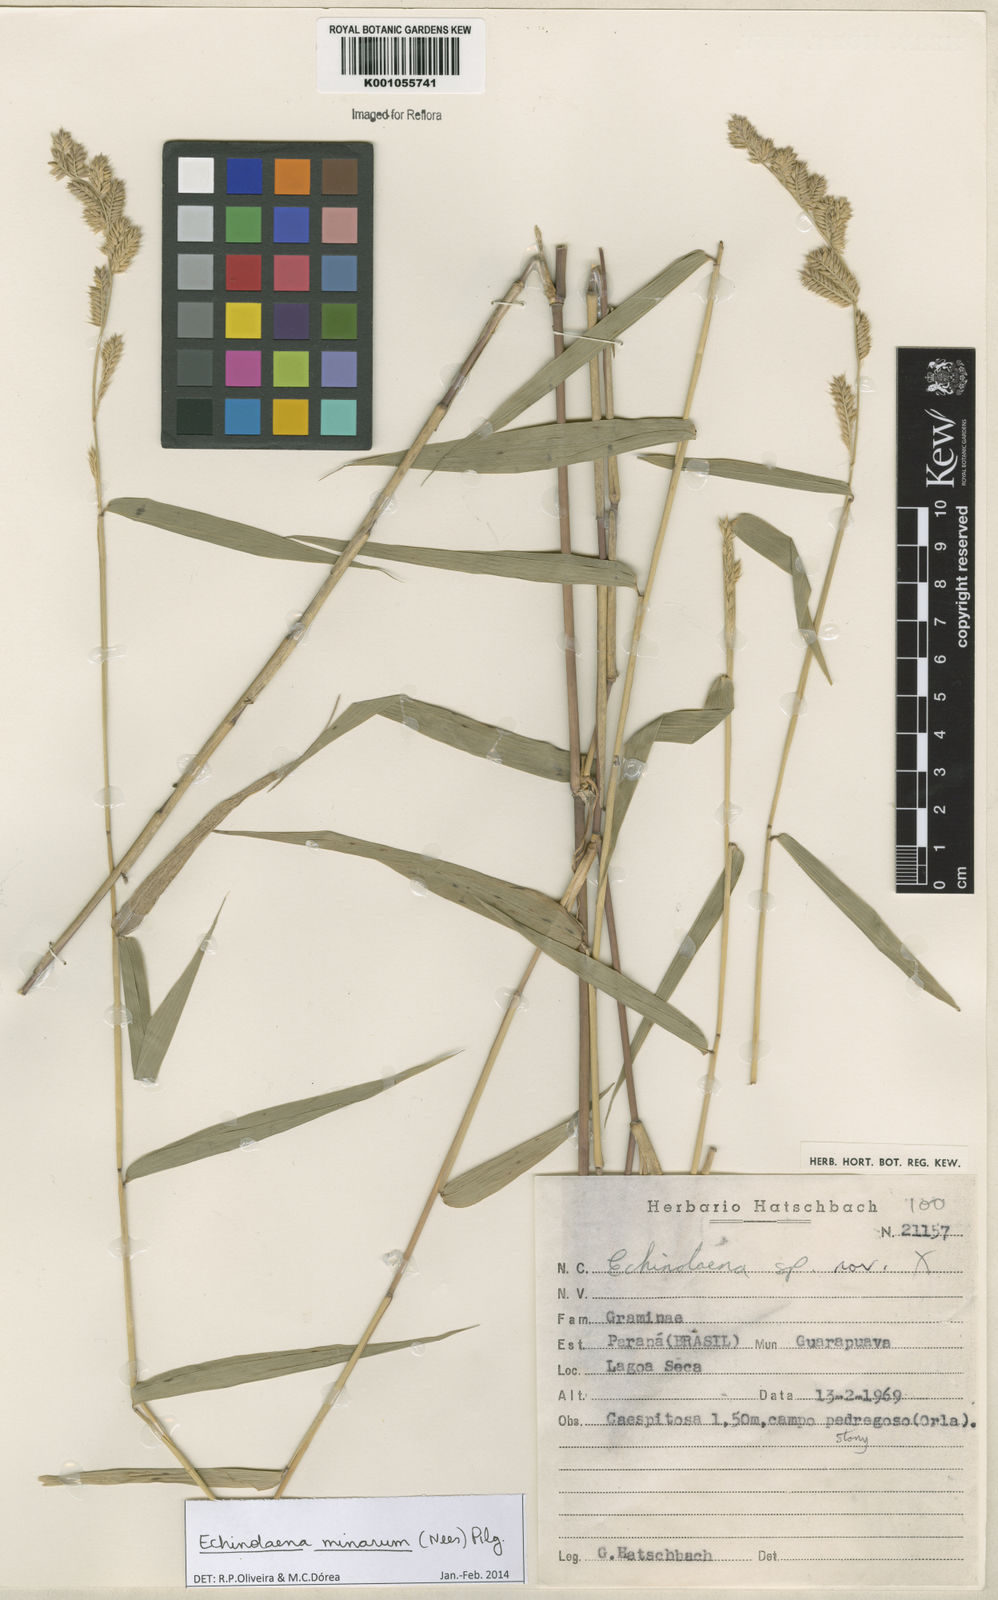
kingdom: Plantae
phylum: Tracheophyta
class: Liliopsida
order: Poales
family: Poaceae
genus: Oedochloa
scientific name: Oedochloa minarum
